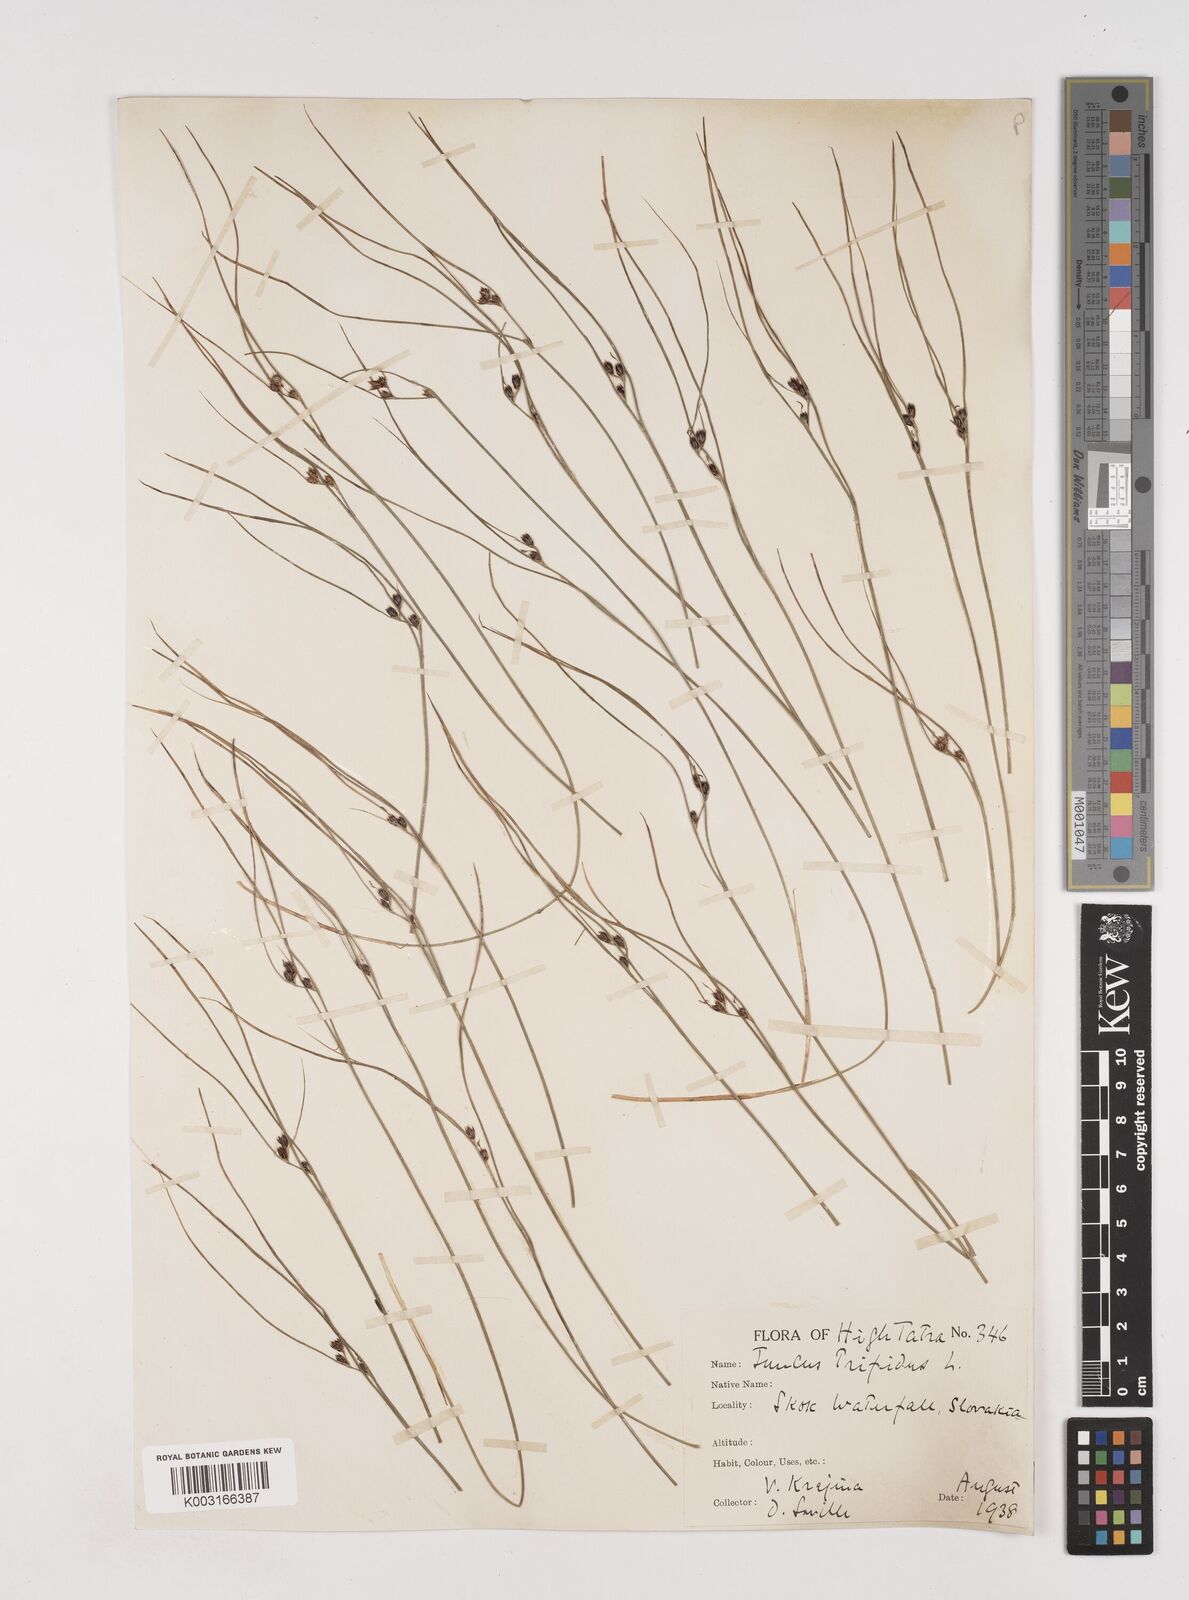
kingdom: Plantae
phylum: Tracheophyta
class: Liliopsida
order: Poales
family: Juncaceae
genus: Oreojuncus
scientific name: Oreojuncus trifidus
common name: Highland rush
